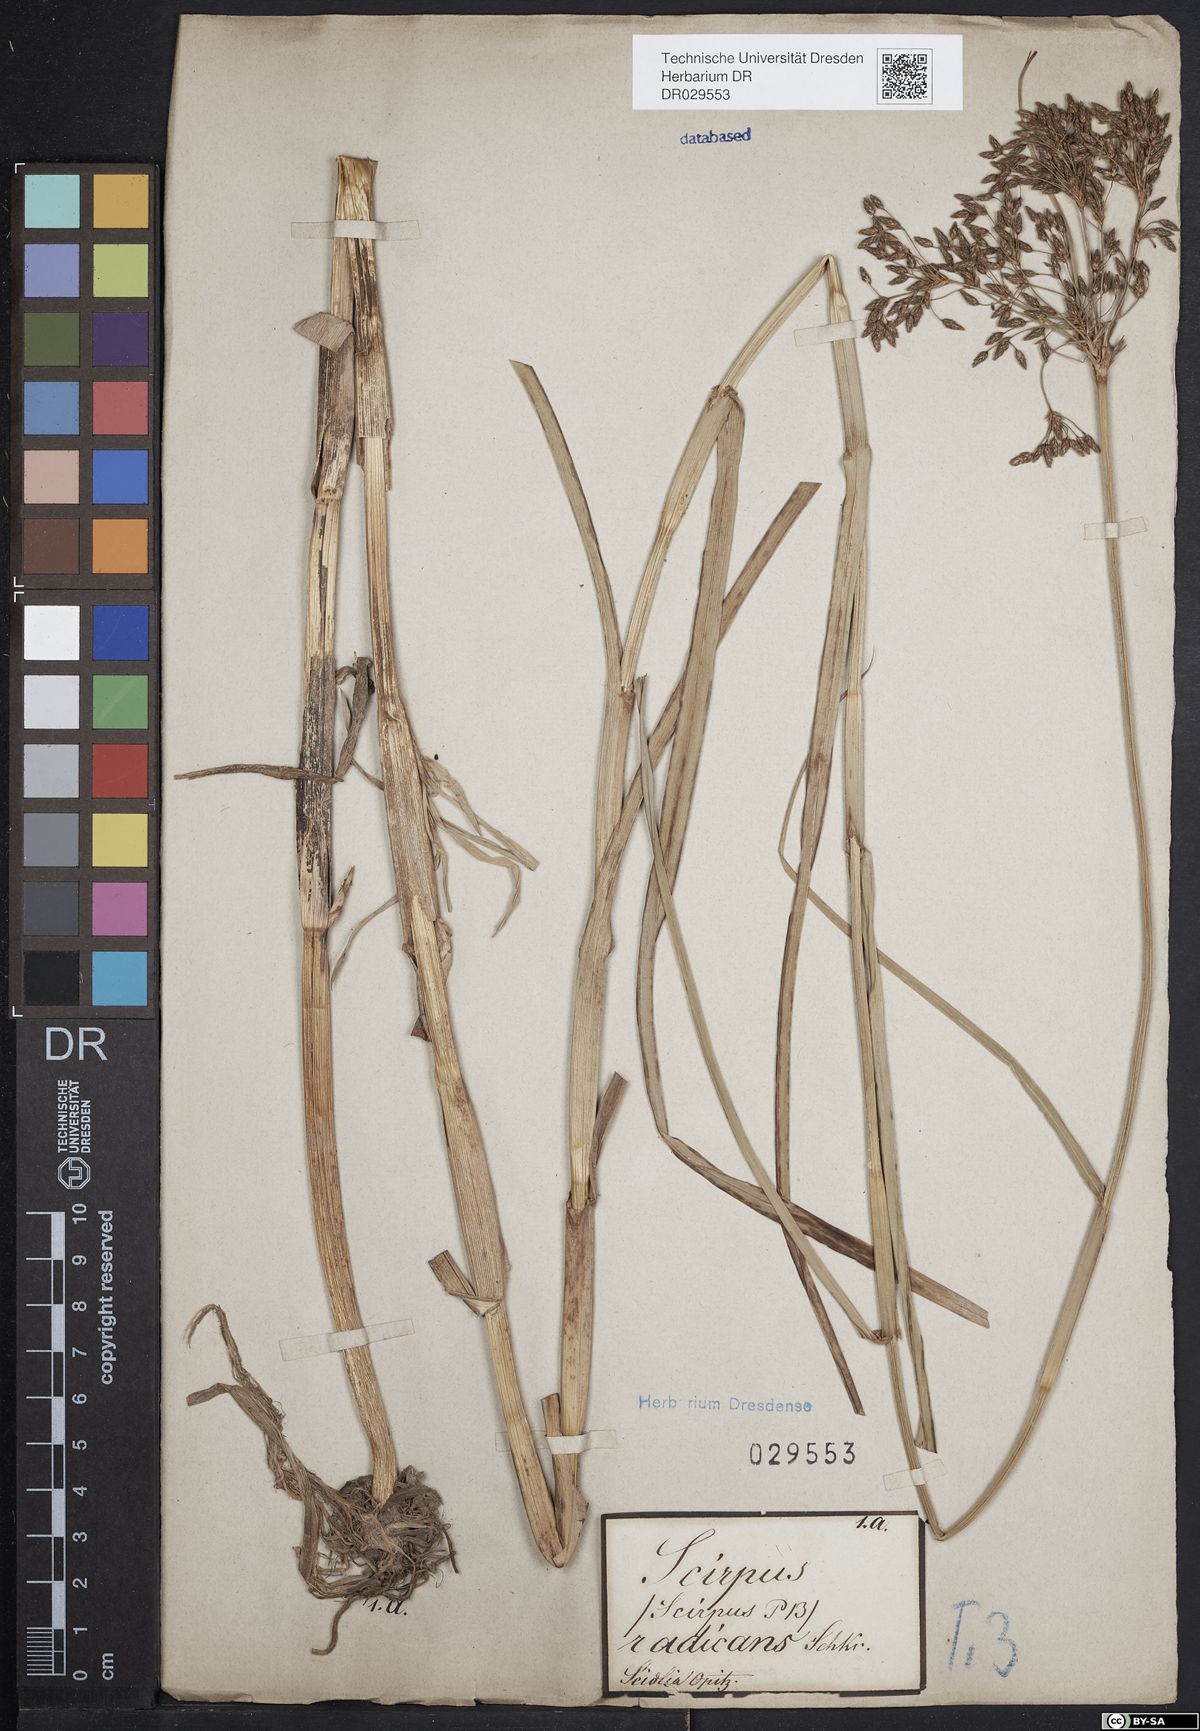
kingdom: Plantae
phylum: Tracheophyta
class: Liliopsida
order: Poales
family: Cyperaceae
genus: Scirpus
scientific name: Scirpus radicans
